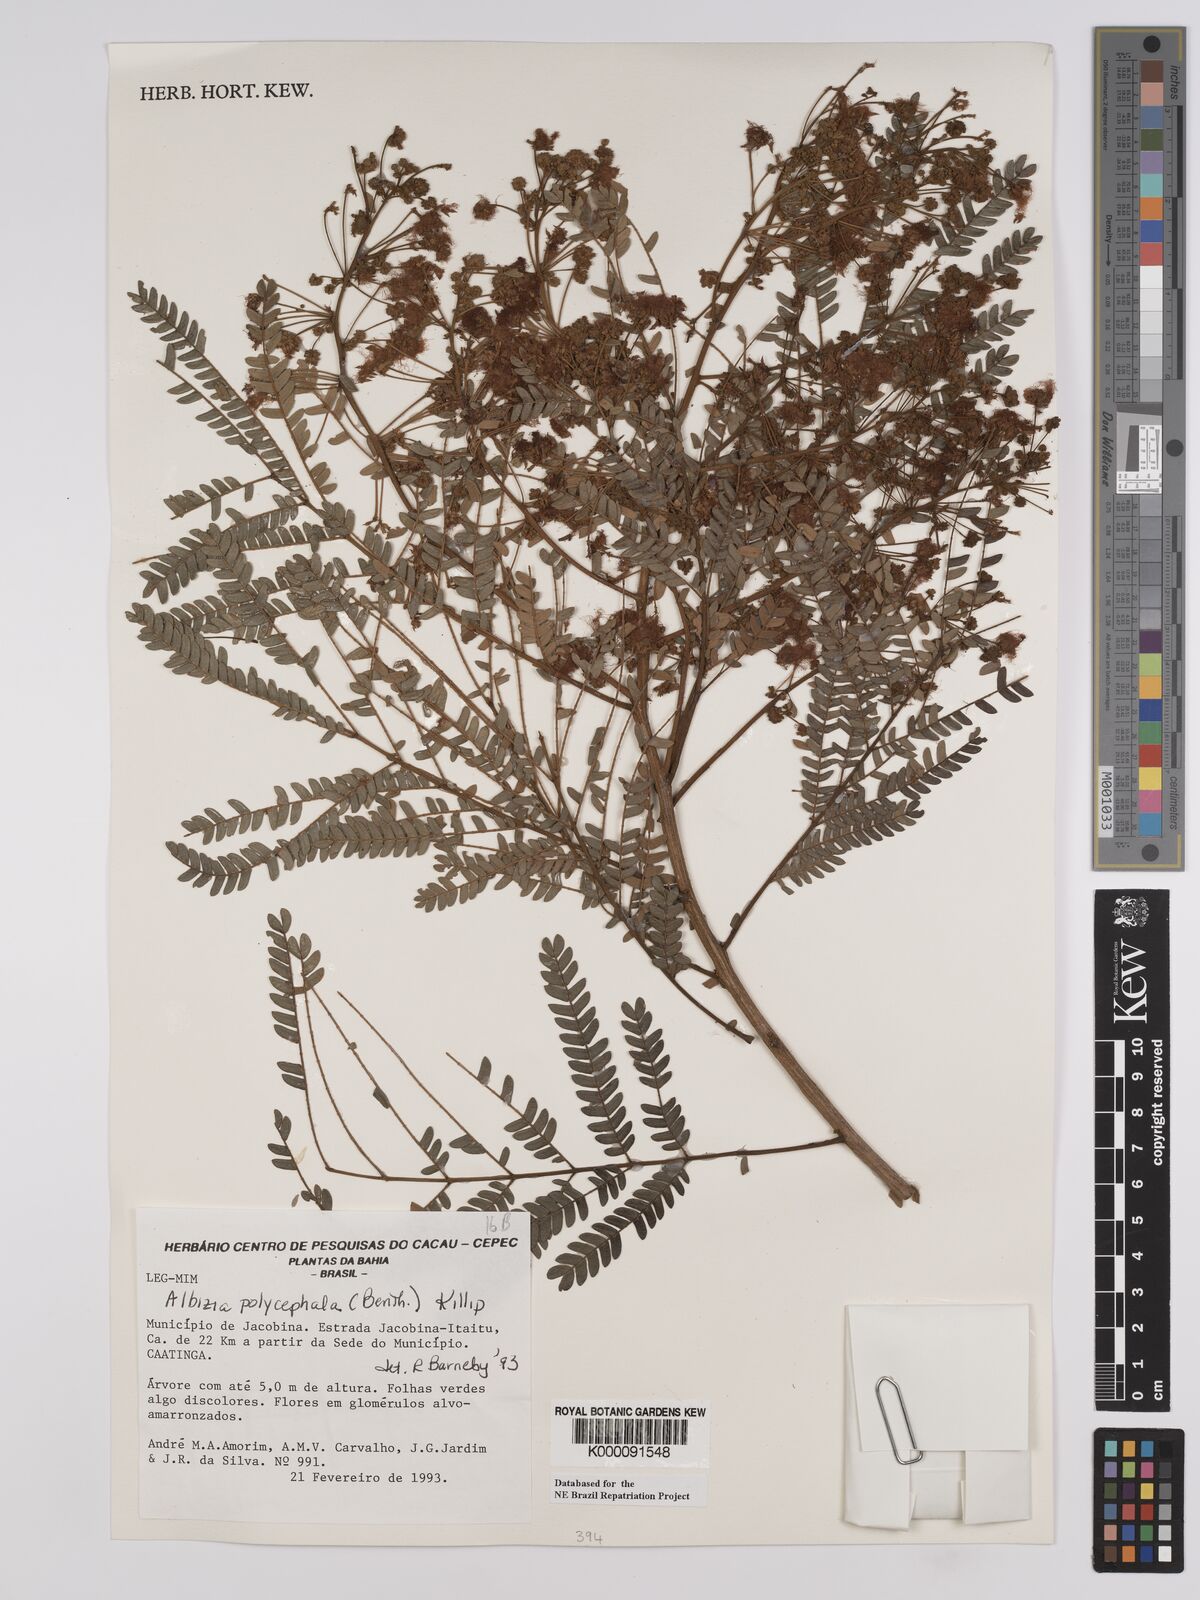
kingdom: Plantae
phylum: Tracheophyta
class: Magnoliopsida
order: Fabales
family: Fabaceae
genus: Albizia
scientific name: Albizia polycephala
